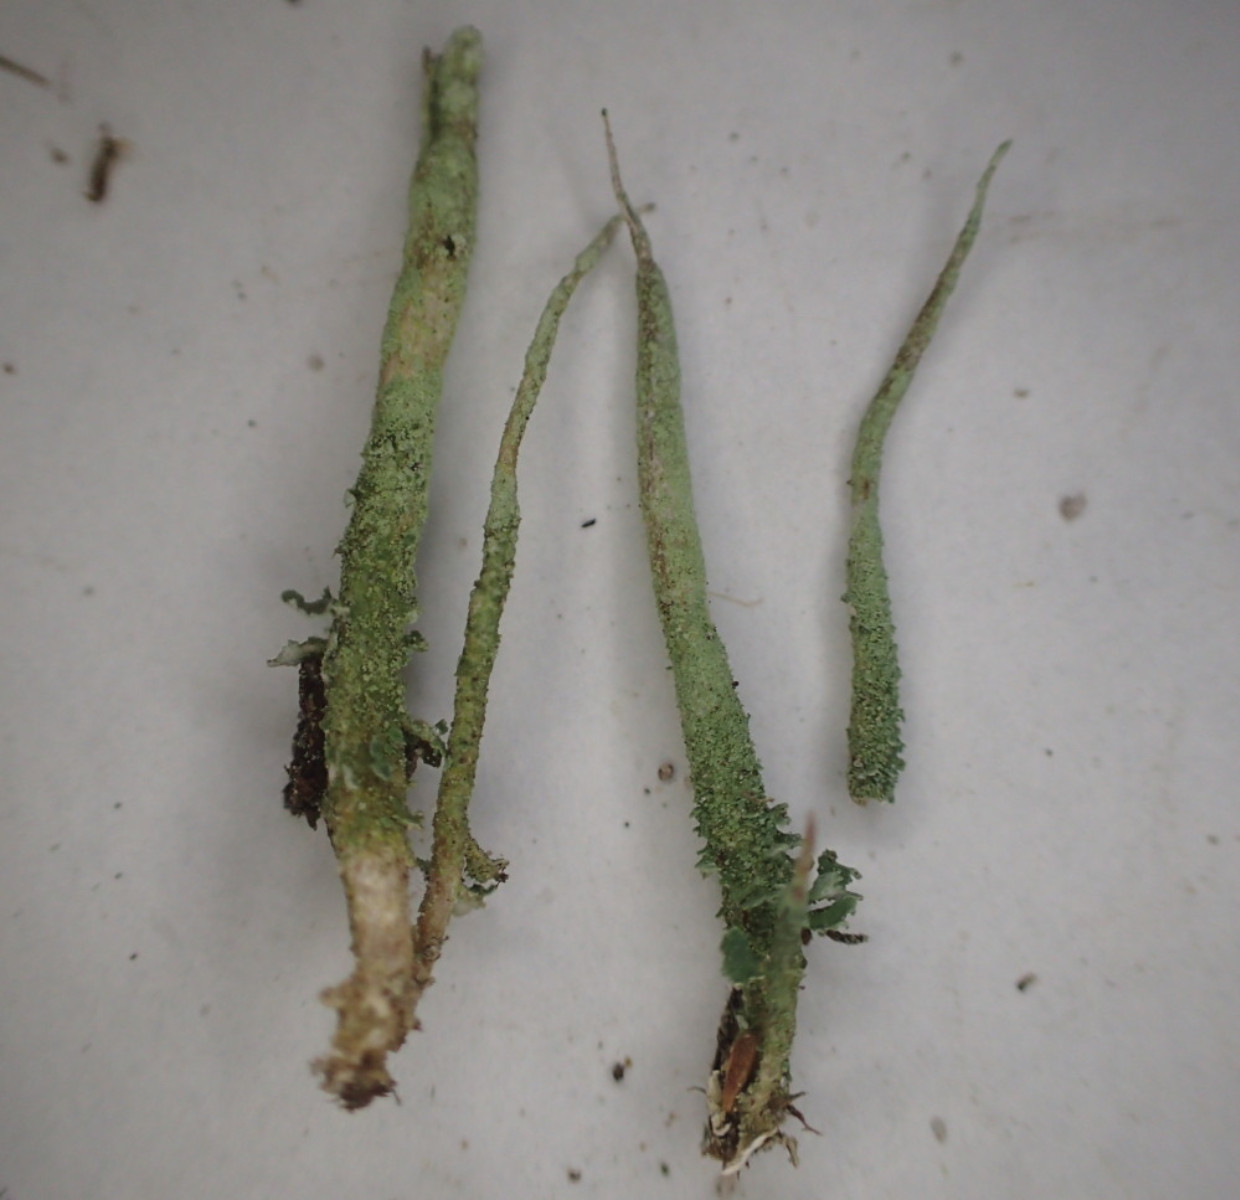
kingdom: Fungi
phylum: Ascomycota
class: Lecanoromycetes
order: Lecanorales
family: Cladoniaceae
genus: Cladonia
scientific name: Cladonia glauca
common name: grågrøn bægerlav
